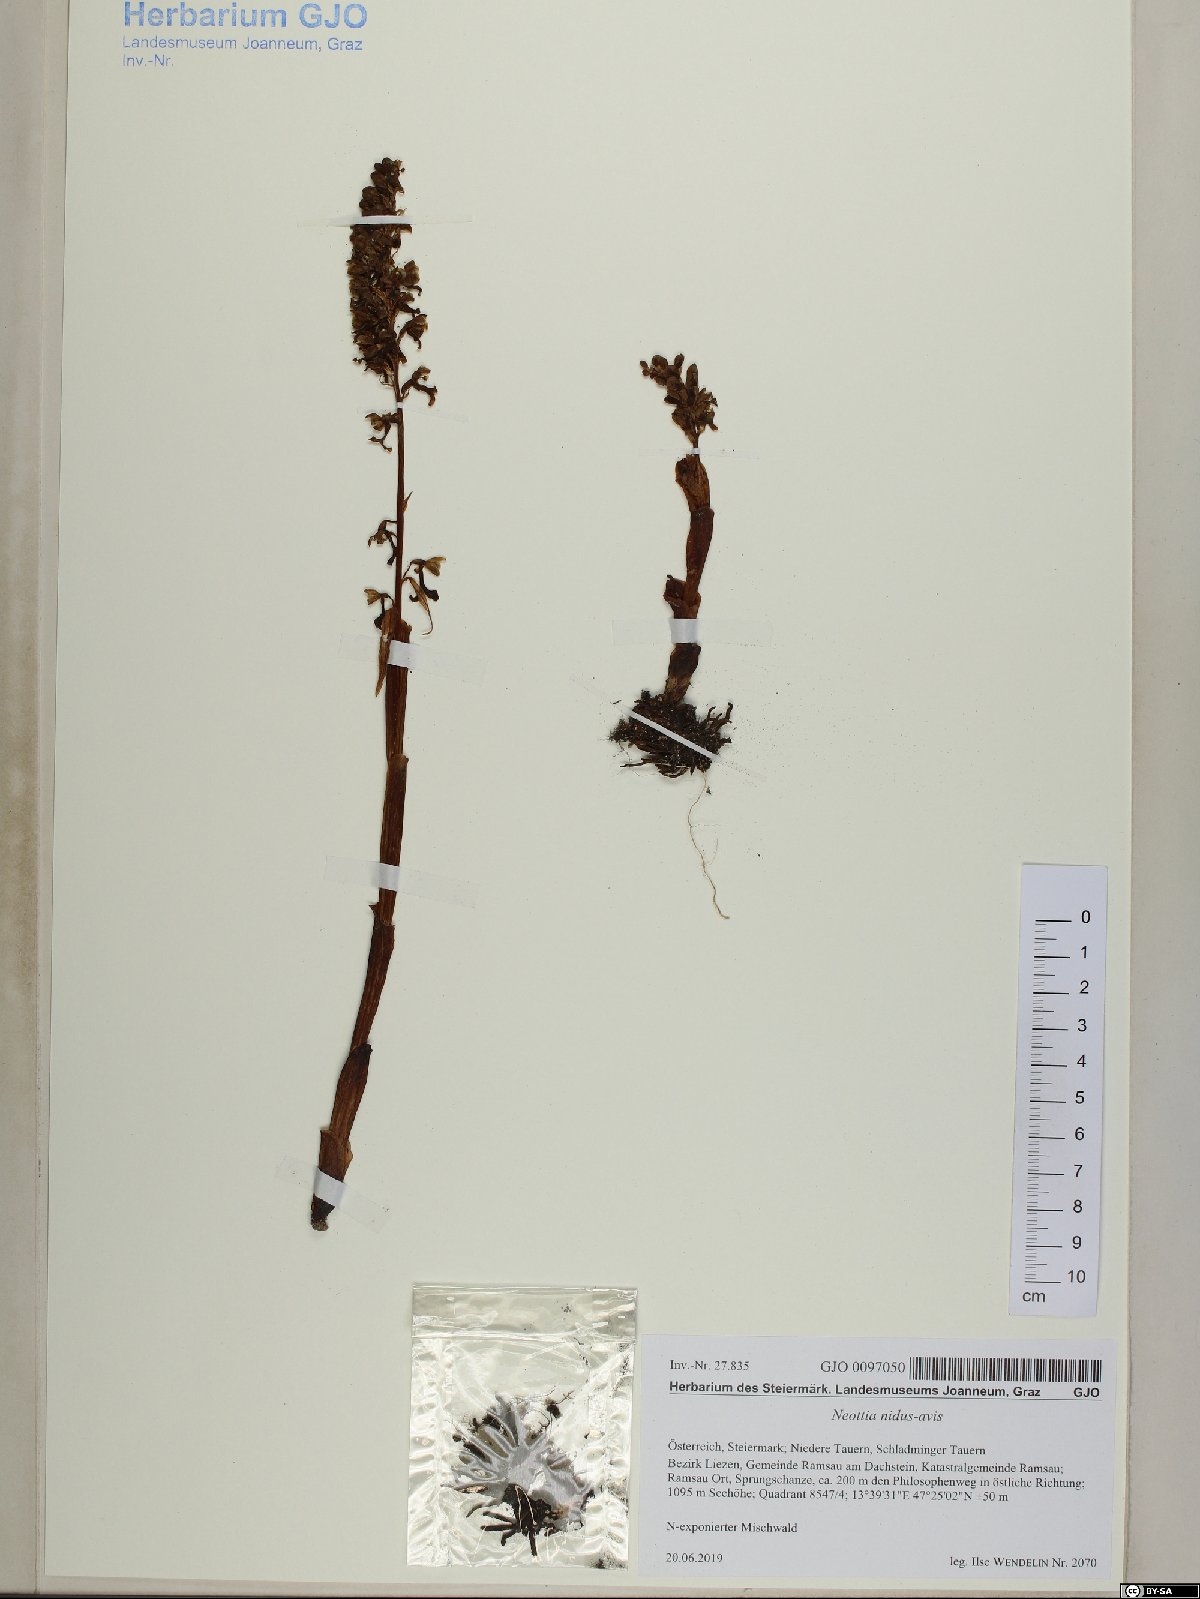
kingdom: Plantae
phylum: Tracheophyta
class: Liliopsida
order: Asparagales
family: Orchidaceae
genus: Neottia
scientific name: Neottia nidus-avis
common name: Bird's-nest orchid
